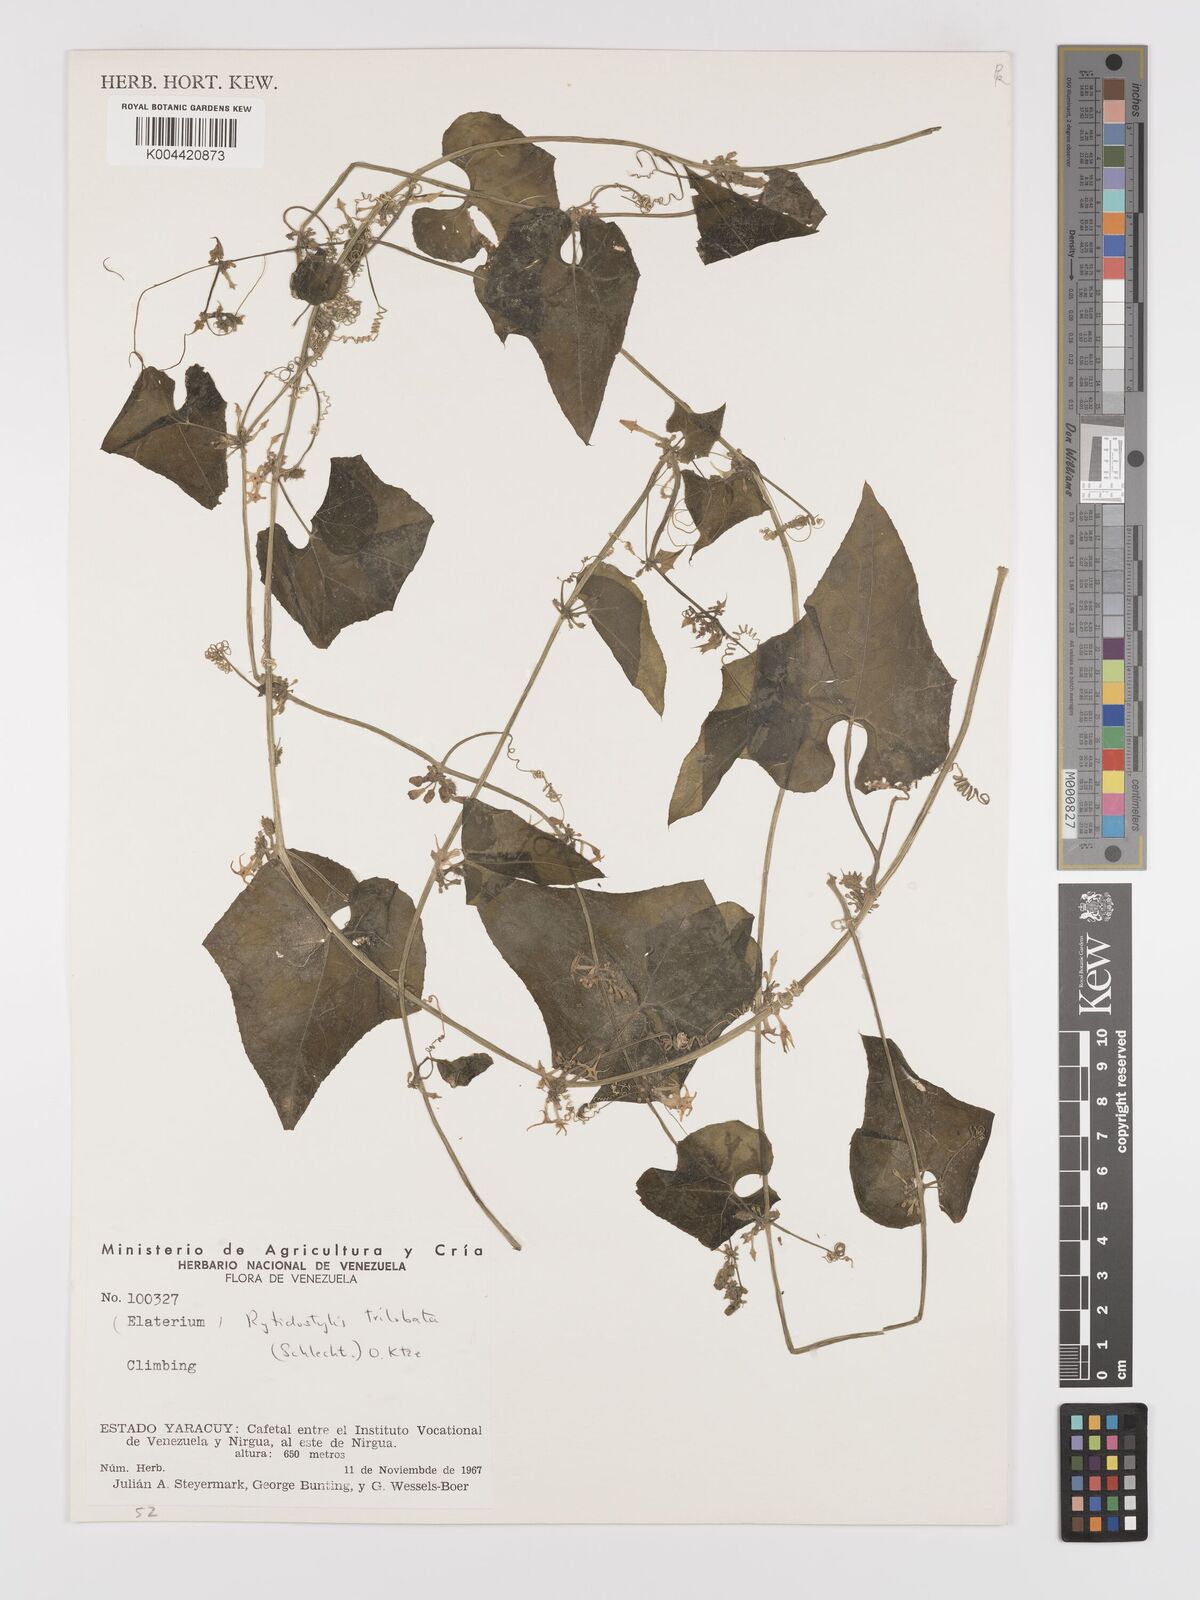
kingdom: Plantae
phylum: Tracheophyta
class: Magnoliopsida
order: Cucurbitales
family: Cucurbitaceae
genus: Cyclanthera
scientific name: Cyclanthera carthagenensis
